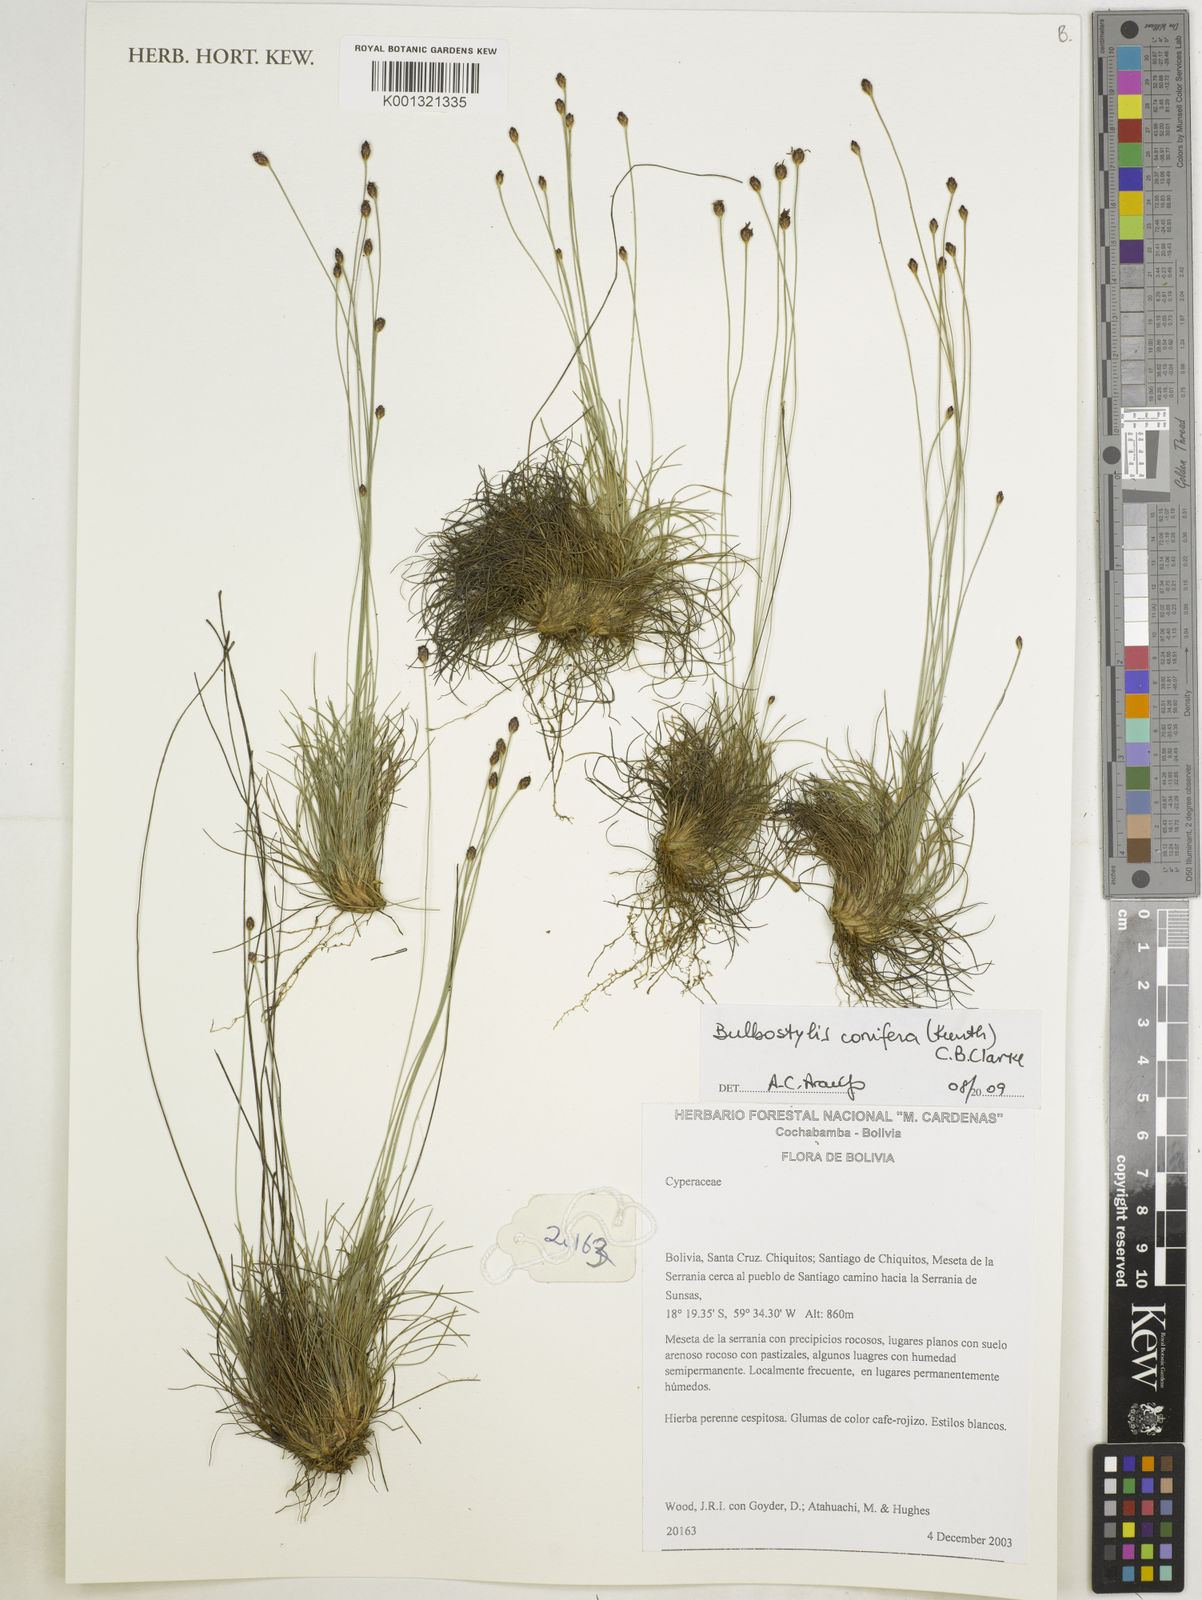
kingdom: Plantae
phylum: Tracheophyta
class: Liliopsida
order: Poales
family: Cyperaceae
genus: Bulbostylis
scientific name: Bulbostylis conifera
